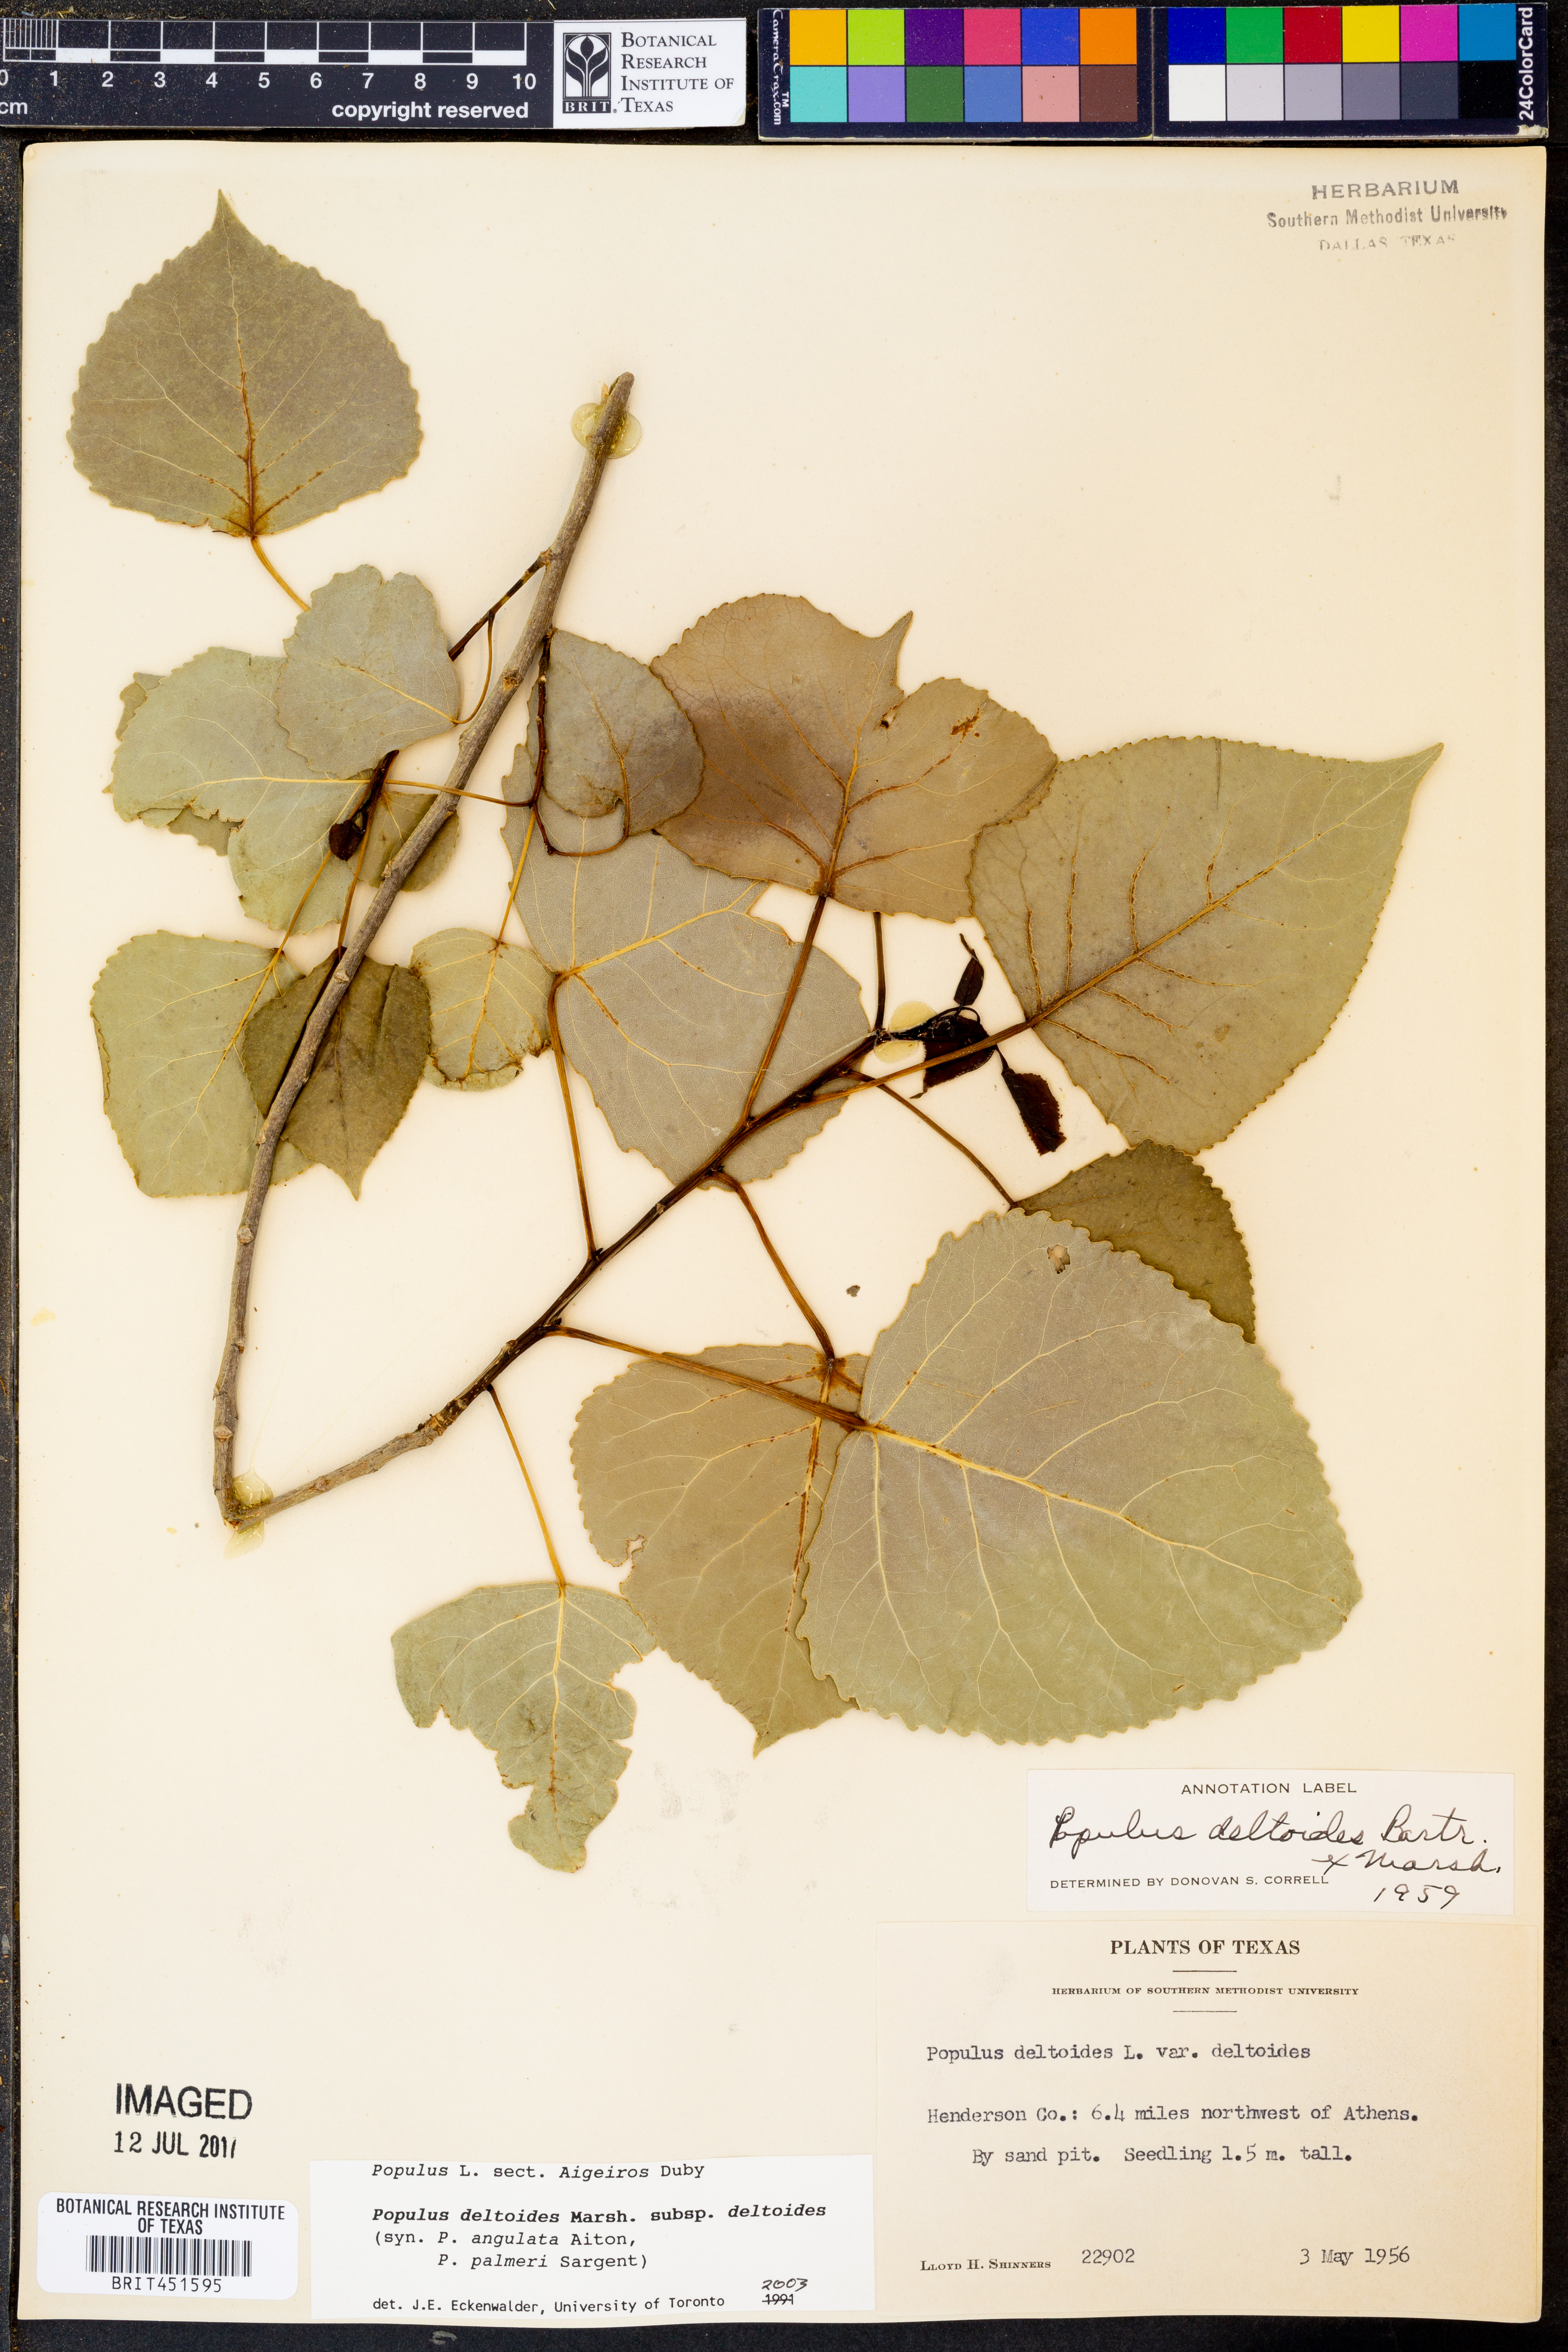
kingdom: Plantae
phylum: Tracheophyta
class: Magnoliopsida
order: Malpighiales
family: Salicaceae
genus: Populus
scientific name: Populus deltoides
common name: Eastern cottonwood
